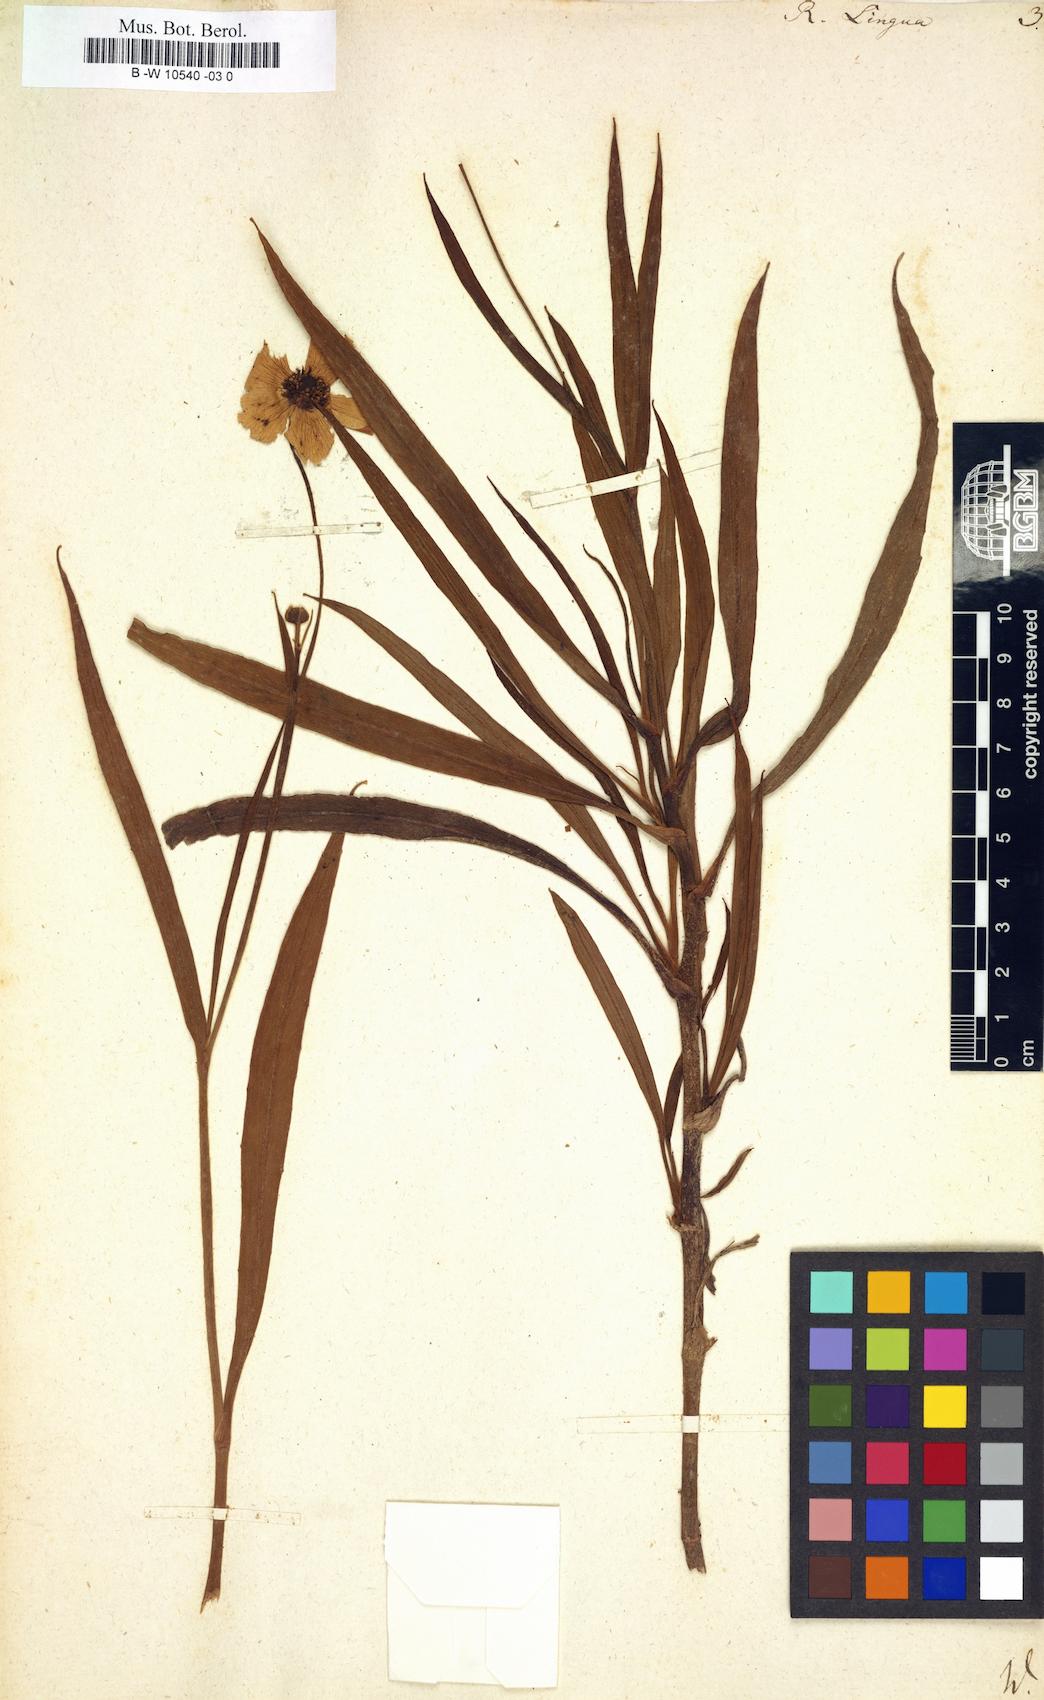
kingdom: Plantae
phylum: Tracheophyta
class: Magnoliopsida
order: Ranunculales
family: Ranunculaceae
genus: Ranunculus
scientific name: Ranunculus lingua
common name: Greater spearwort
